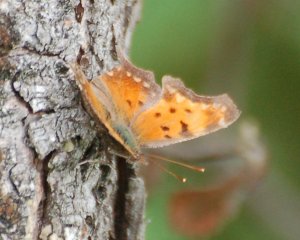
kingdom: Animalia
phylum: Arthropoda
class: Insecta
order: Lepidoptera
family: Nymphalidae
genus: Polygonia
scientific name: Polygonia progne
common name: Gray Comma
